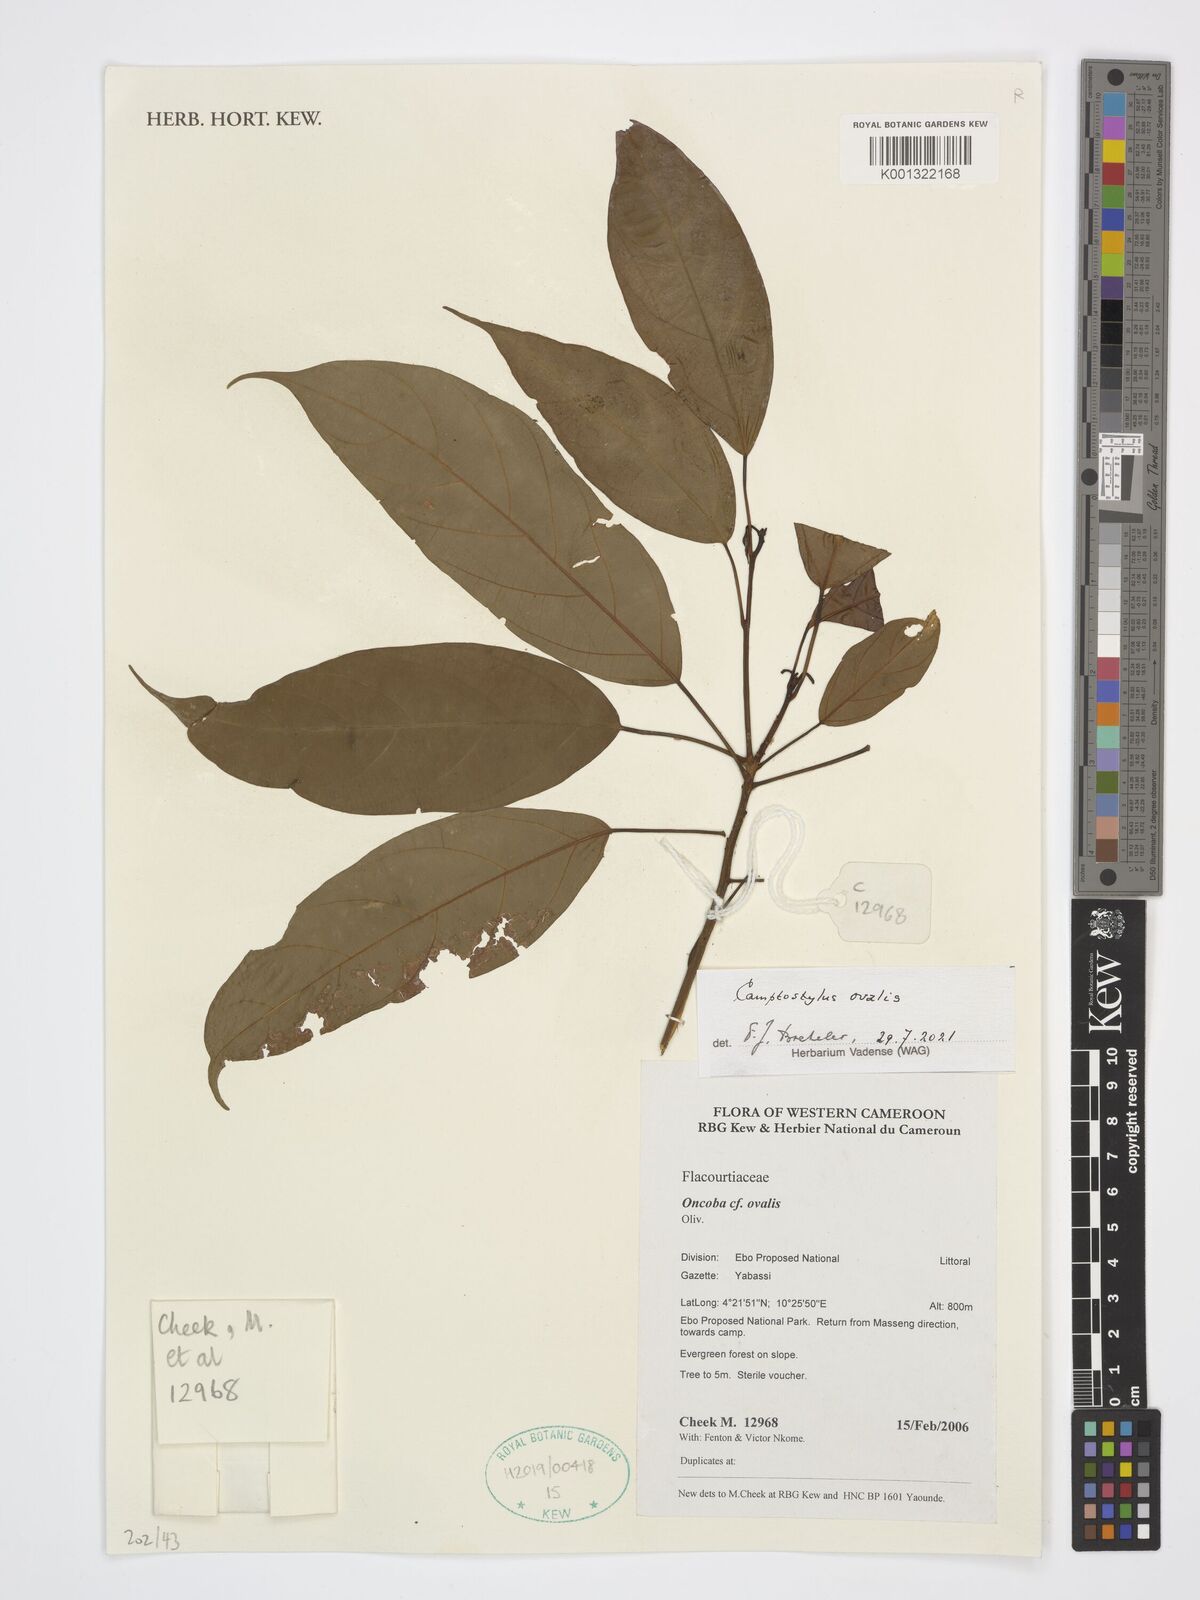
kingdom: Plantae
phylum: Tracheophyta
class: Magnoliopsida
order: Malpighiales
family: Achariaceae
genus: Camptostylus
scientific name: Camptostylus ovalis
